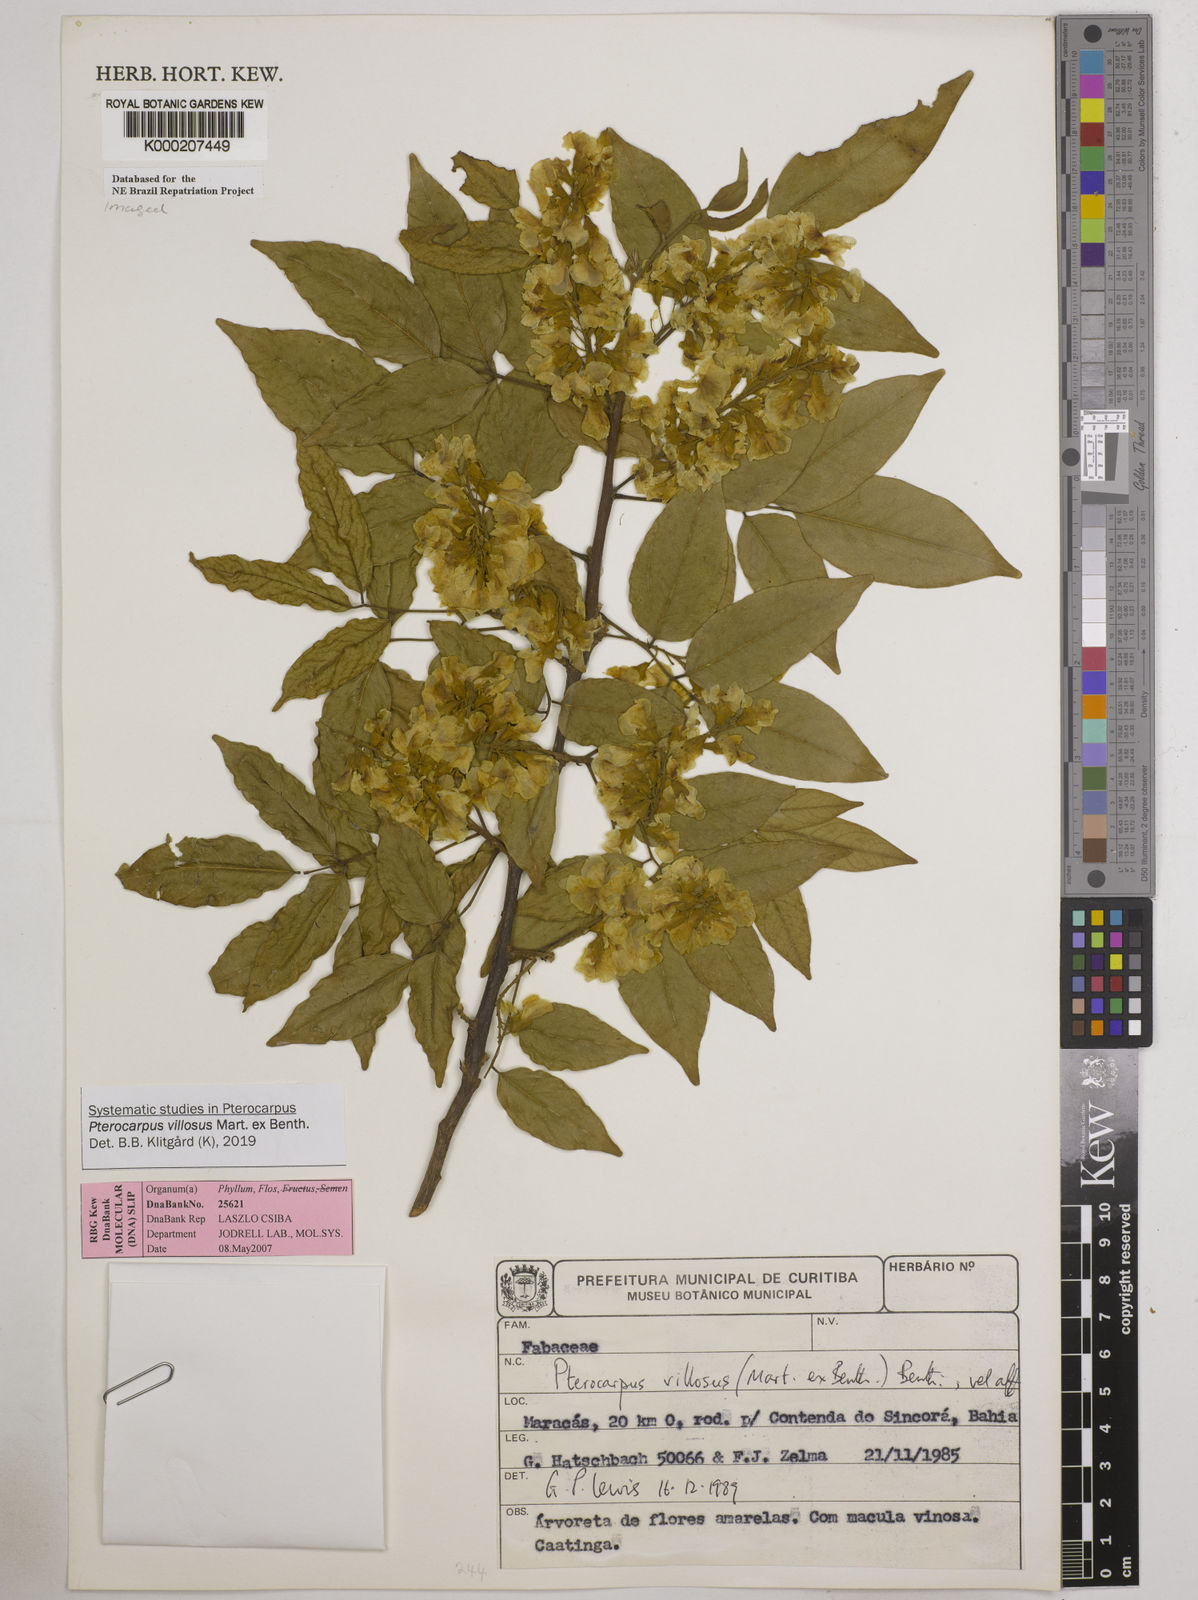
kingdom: Plantae
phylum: Tracheophyta
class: Magnoliopsida
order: Fabales
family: Fabaceae
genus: Pterocarpus
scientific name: Pterocarpus villosus
